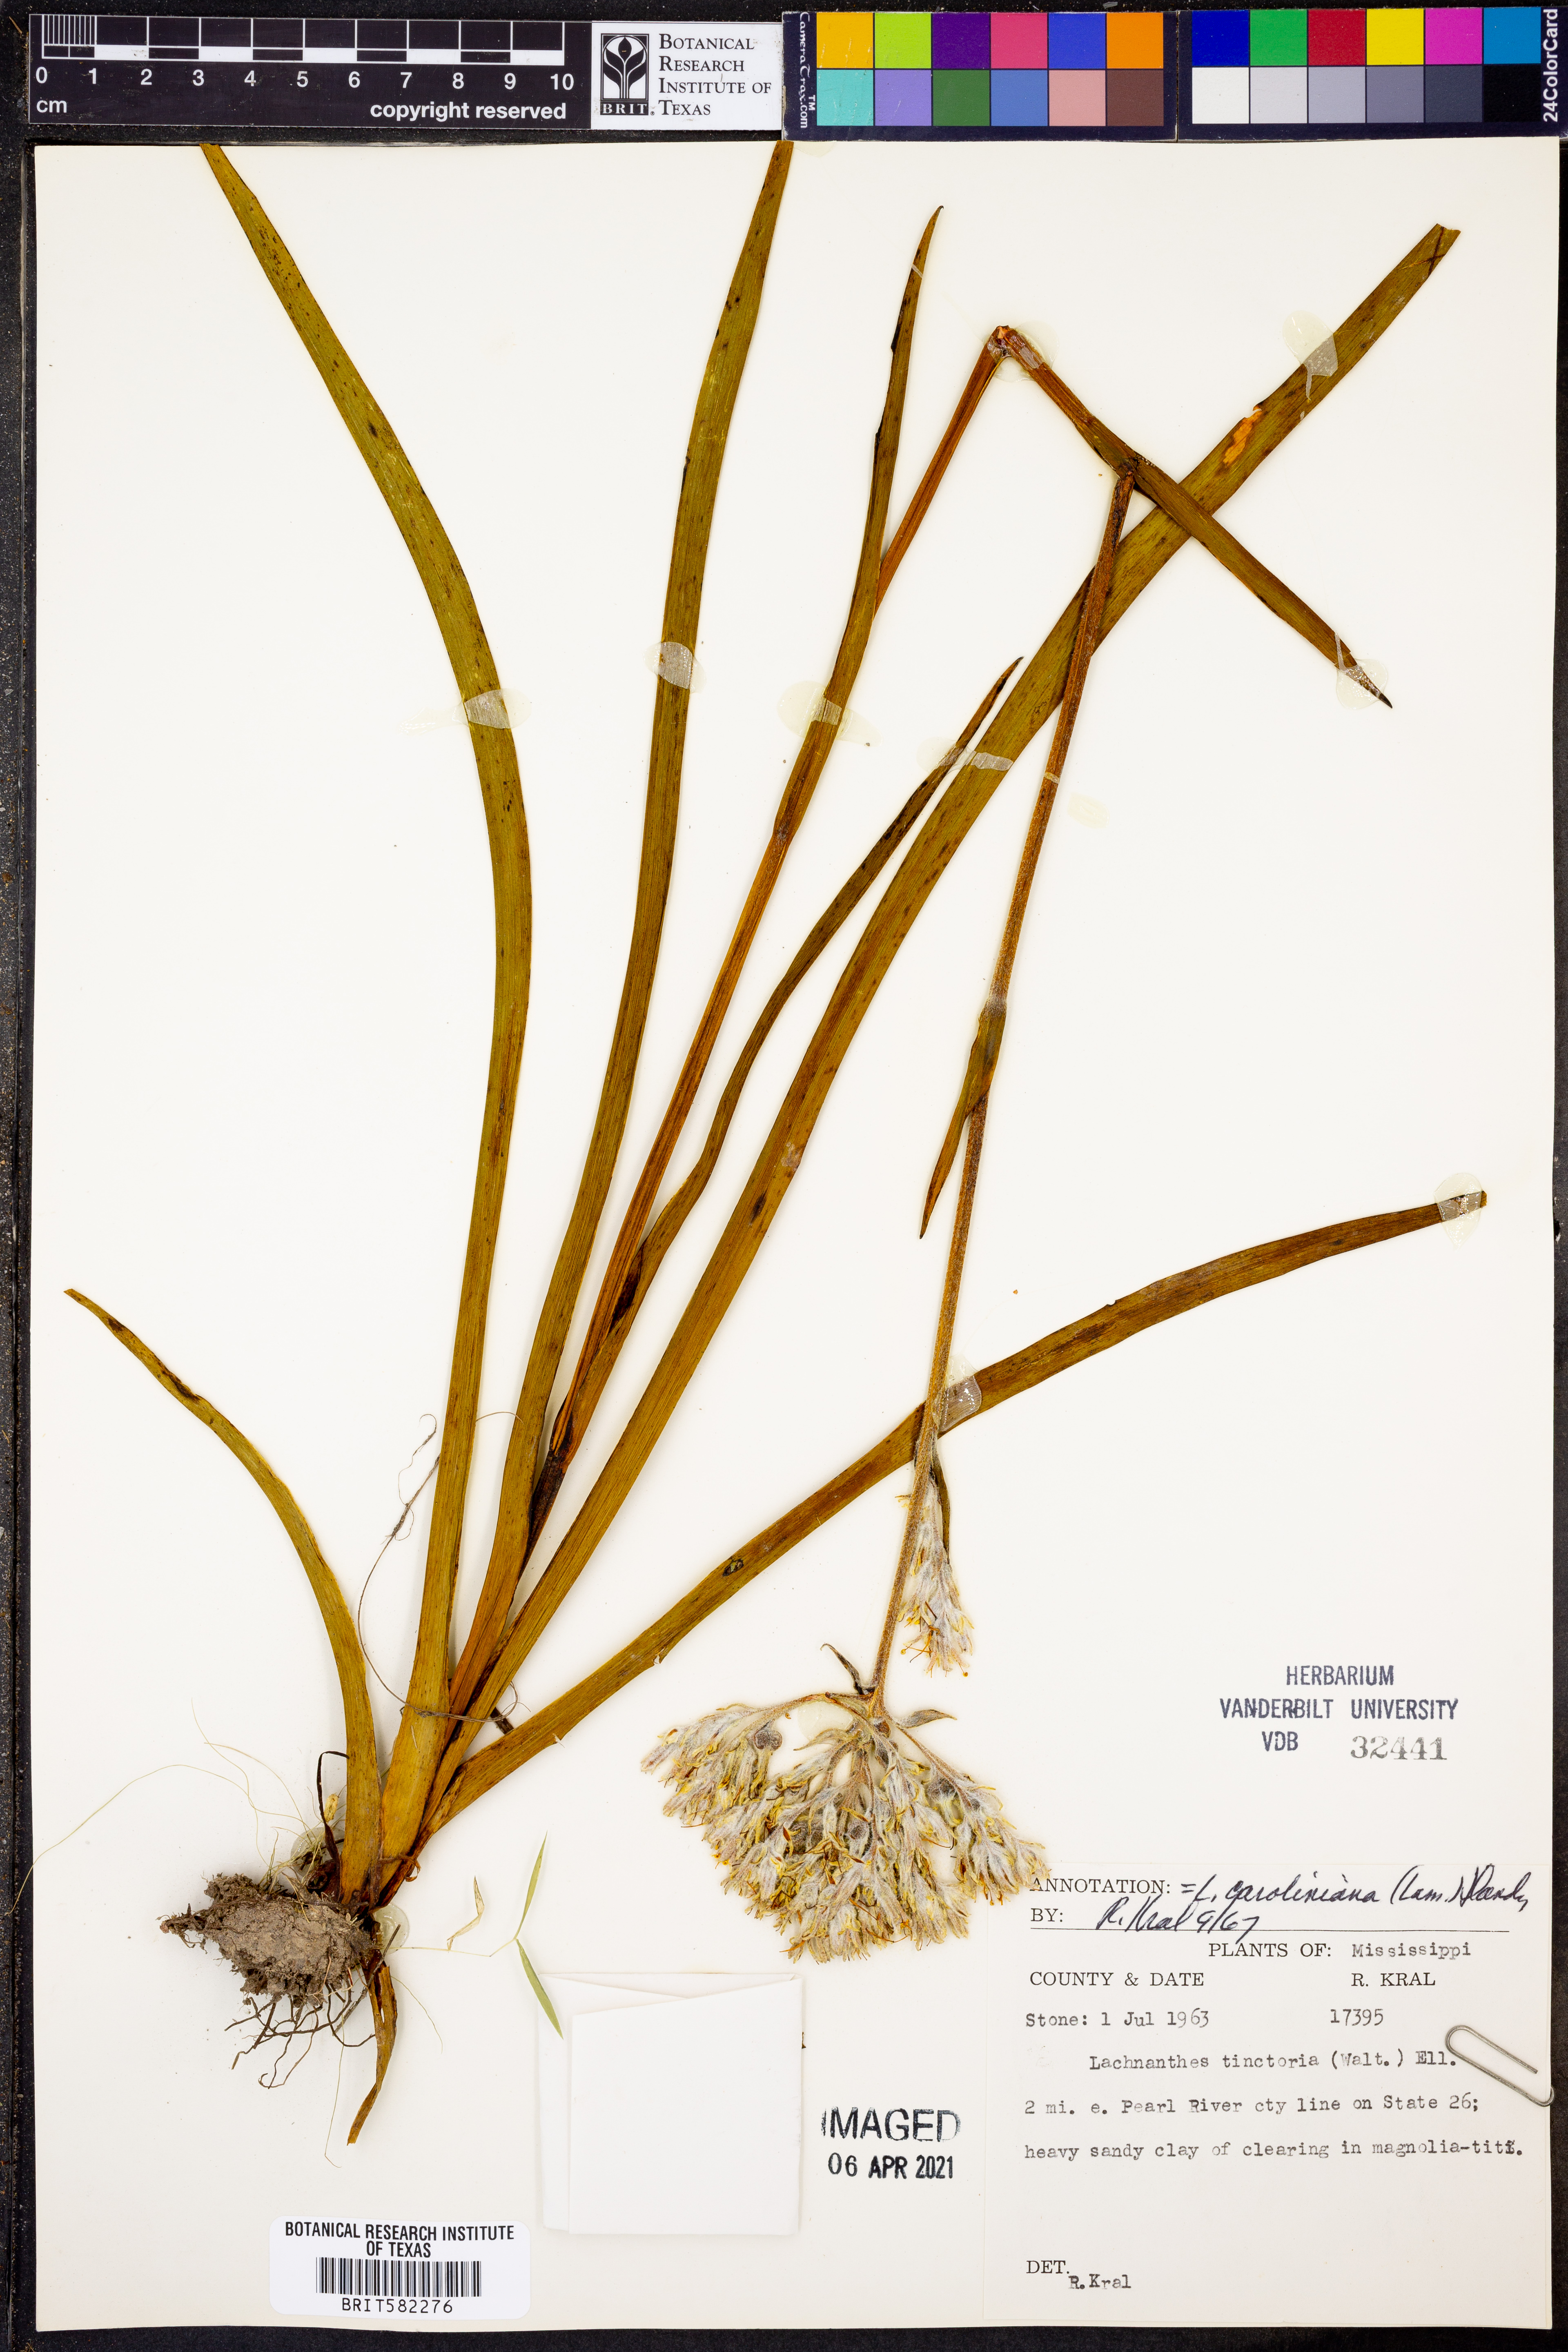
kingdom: Plantae
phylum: Tracheophyta
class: Liliopsida
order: Commelinales
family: Haemodoraceae
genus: Lachnanthes
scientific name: Lachnanthes caroliniana
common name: Carolina redroot
